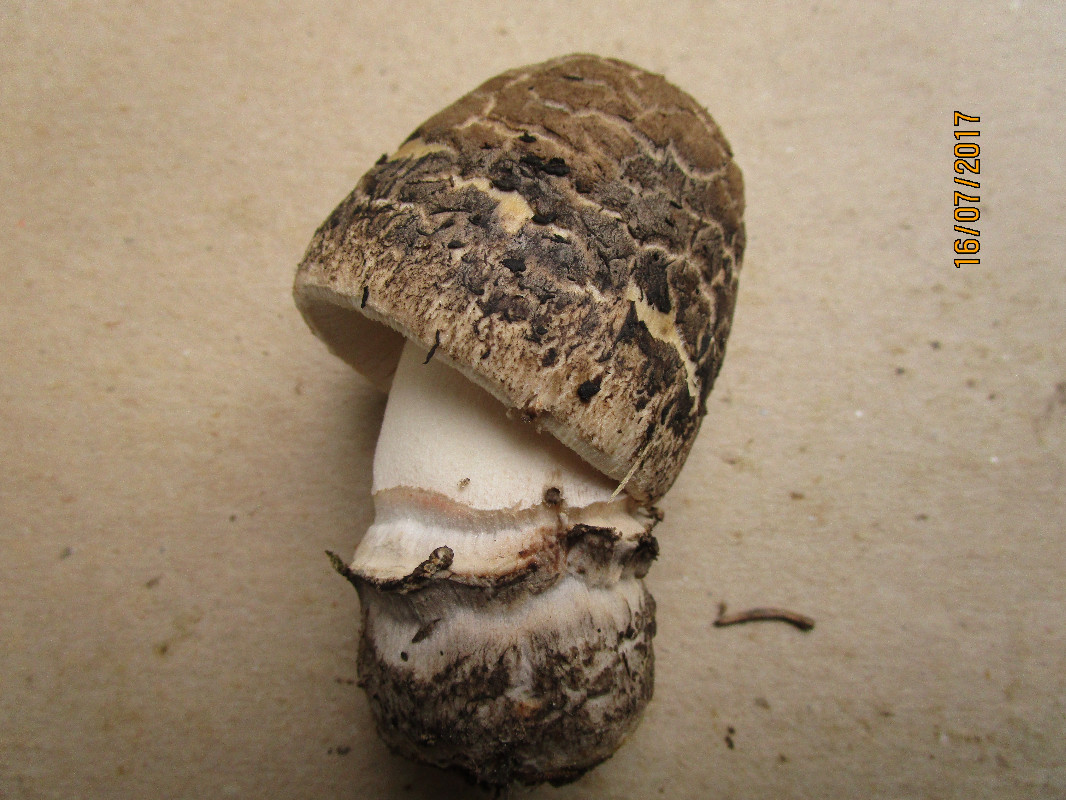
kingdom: Fungi
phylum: Basidiomycota
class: Agaricomycetes
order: Agaricales
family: Amanitaceae
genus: Amanita
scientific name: Amanita ceciliae
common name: stor kam-fluesvamp
